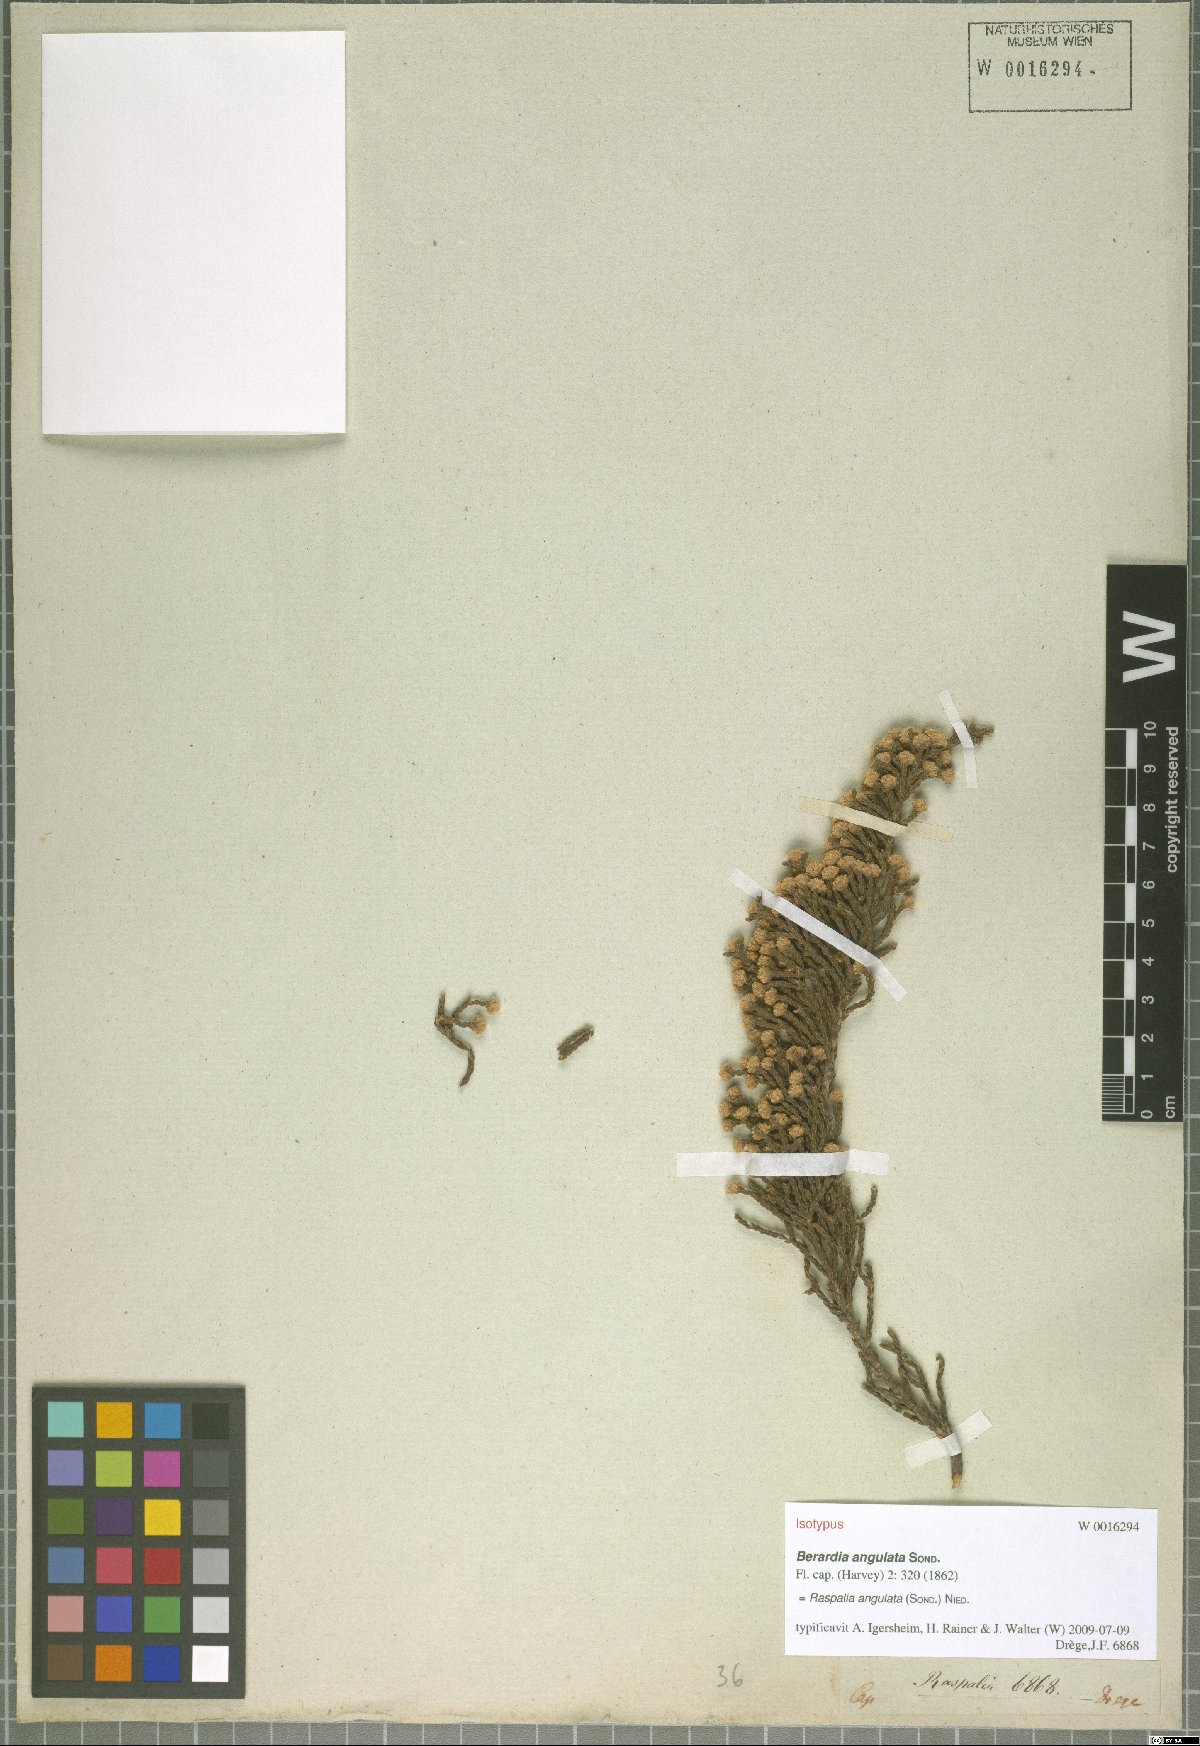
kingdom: Plantae
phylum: Tracheophyta
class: Magnoliopsida
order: Bruniales
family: Bruniaceae
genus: Brunia
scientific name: Brunia angulata
